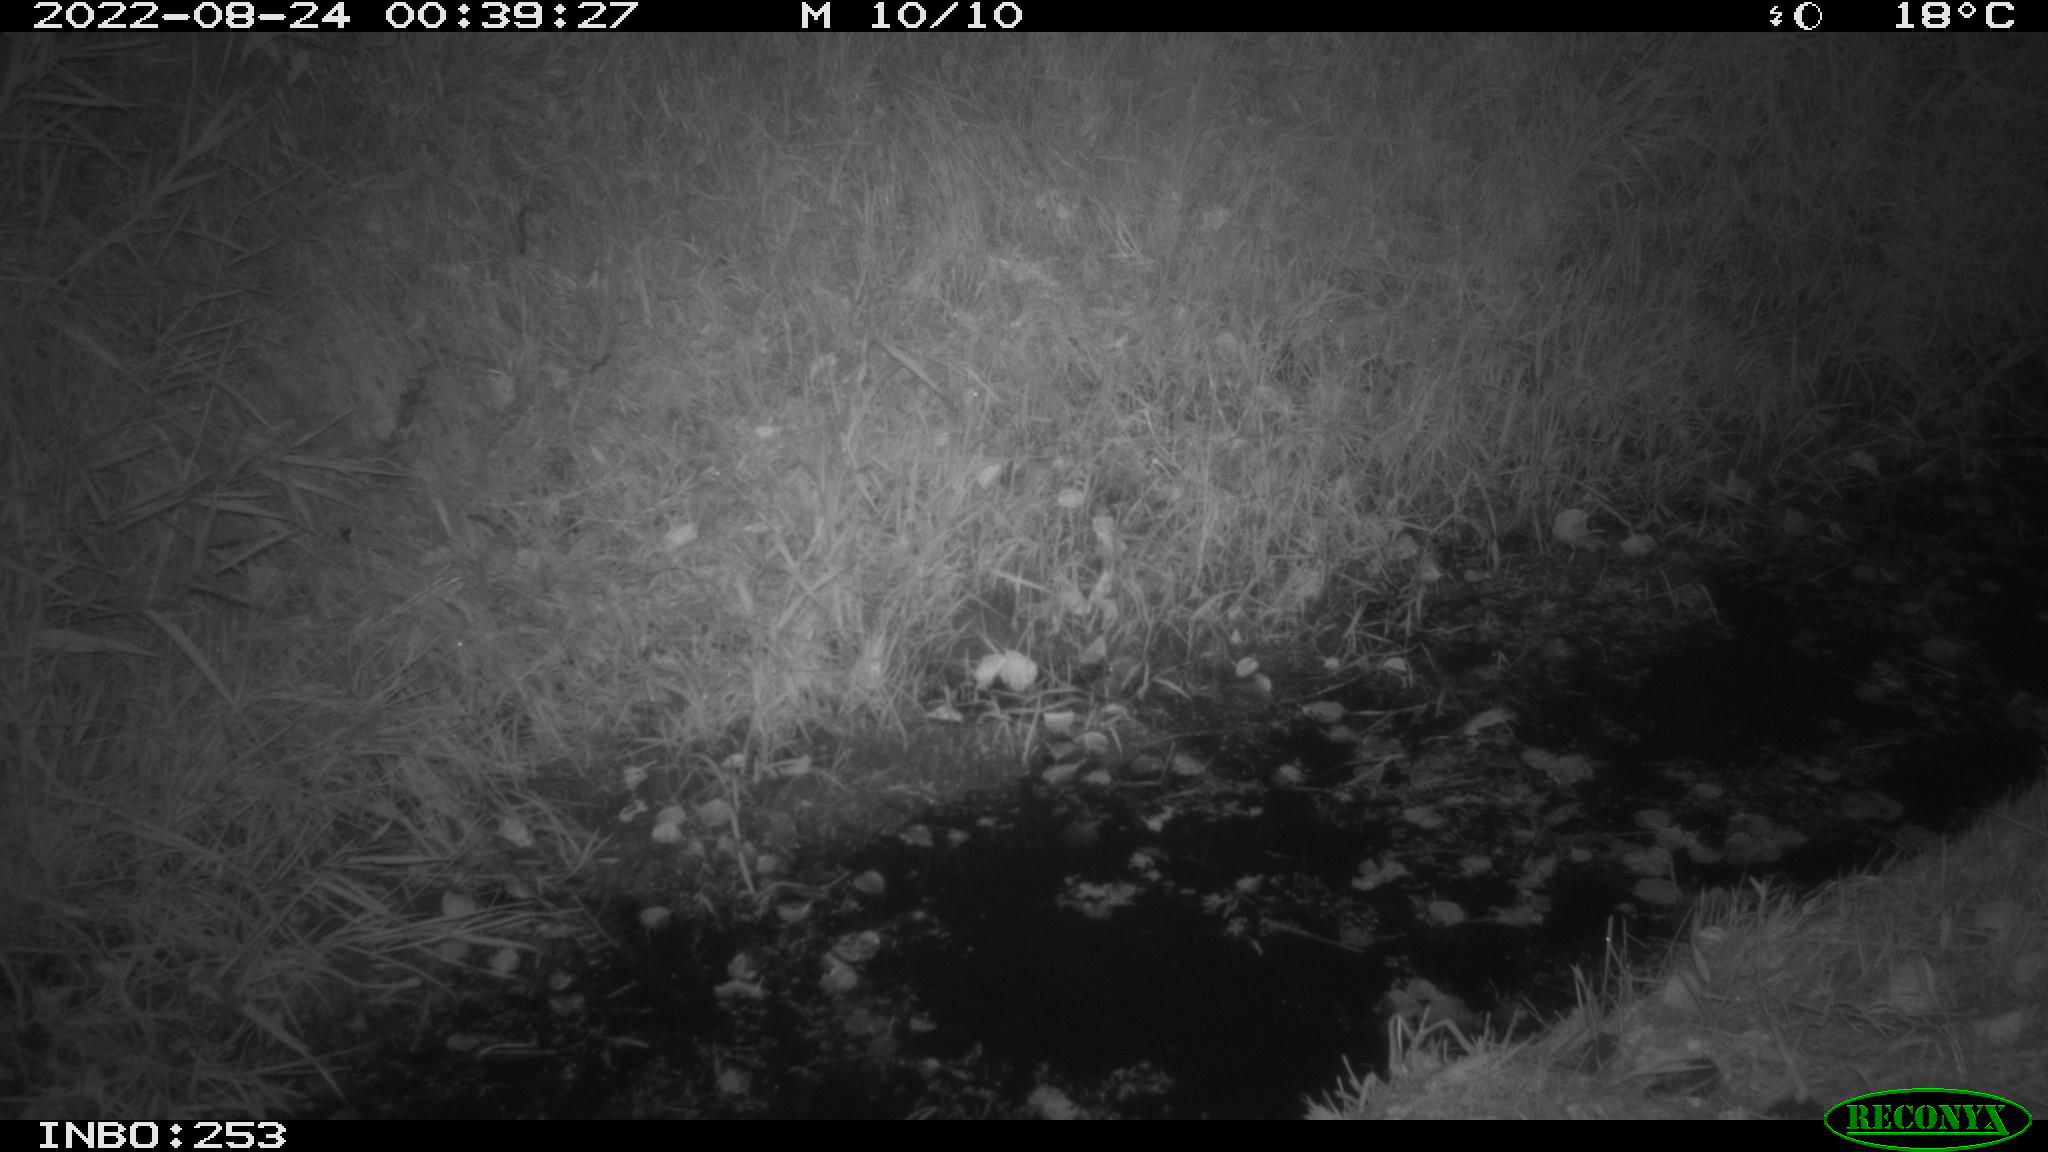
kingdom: Animalia
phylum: Chordata
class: Mammalia
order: Carnivora
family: Mustelidae
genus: Martes
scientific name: Martes foina
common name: Beech marten
